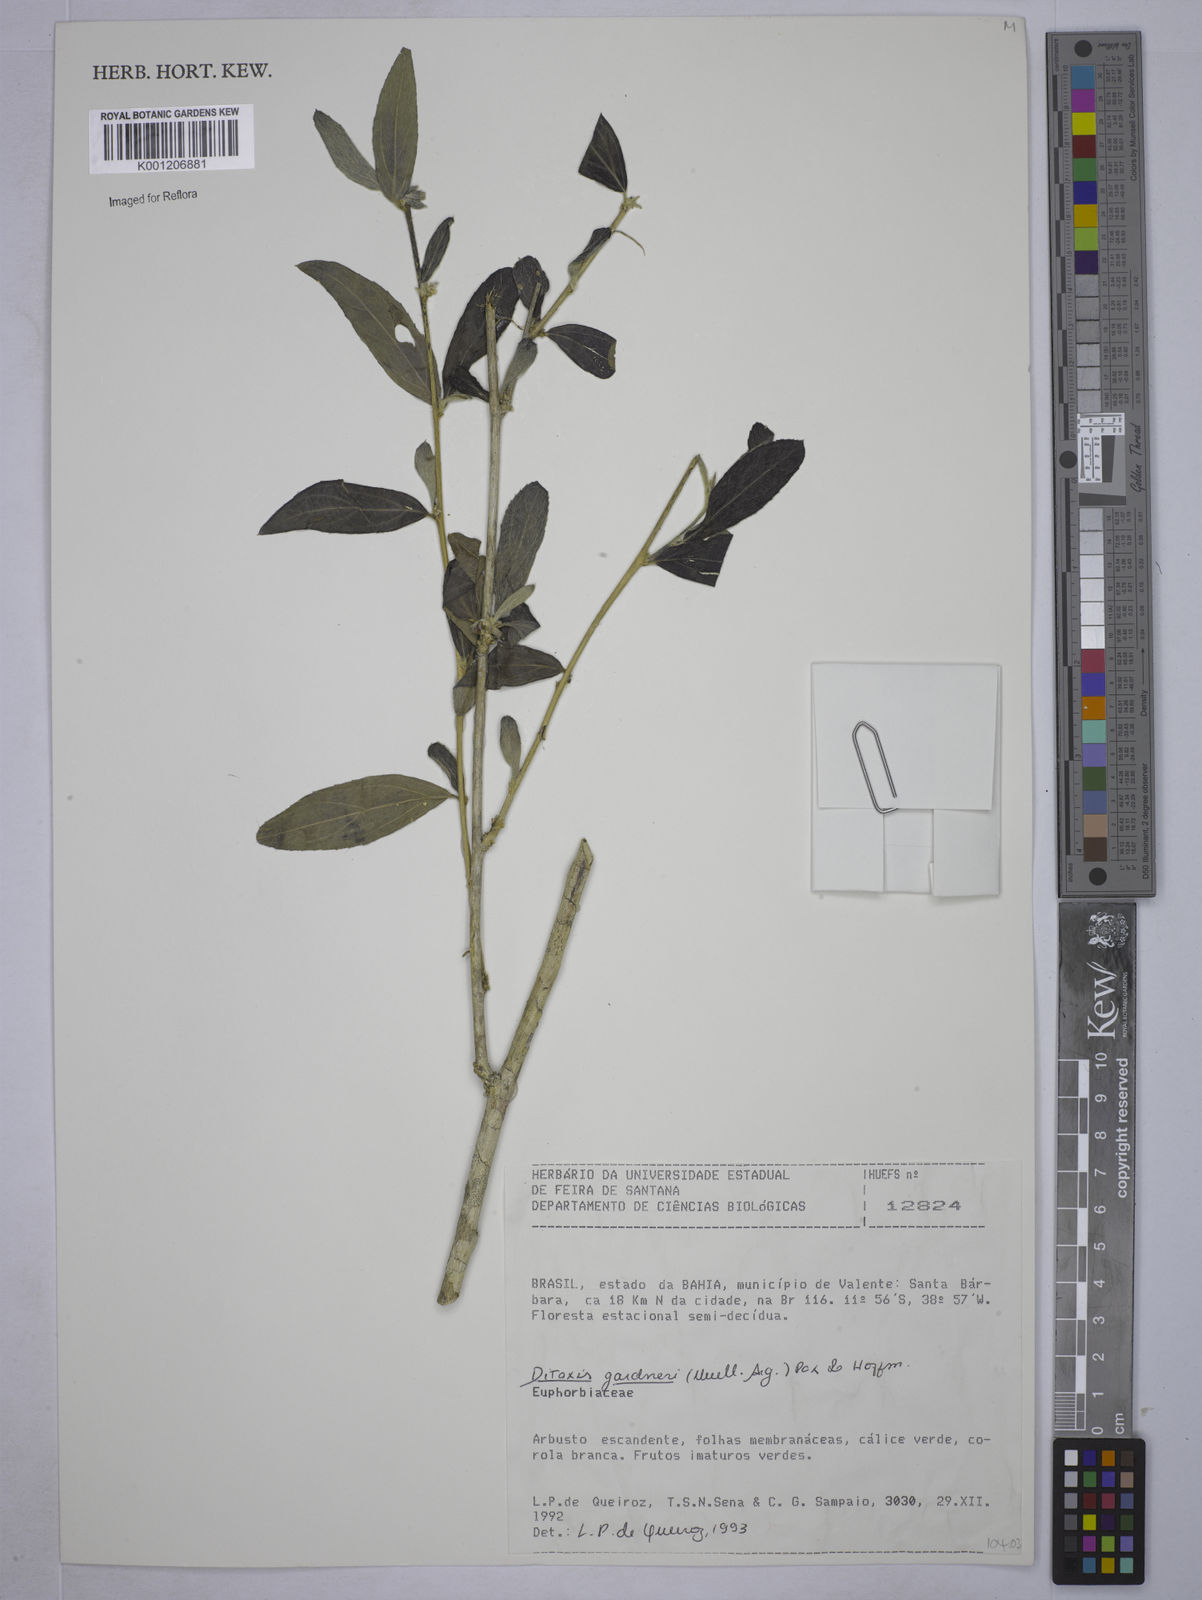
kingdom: Plantae
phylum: Tracheophyta
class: Magnoliopsida
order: Malpighiales
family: Euphorbiaceae
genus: Ditaxis
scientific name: Ditaxis
